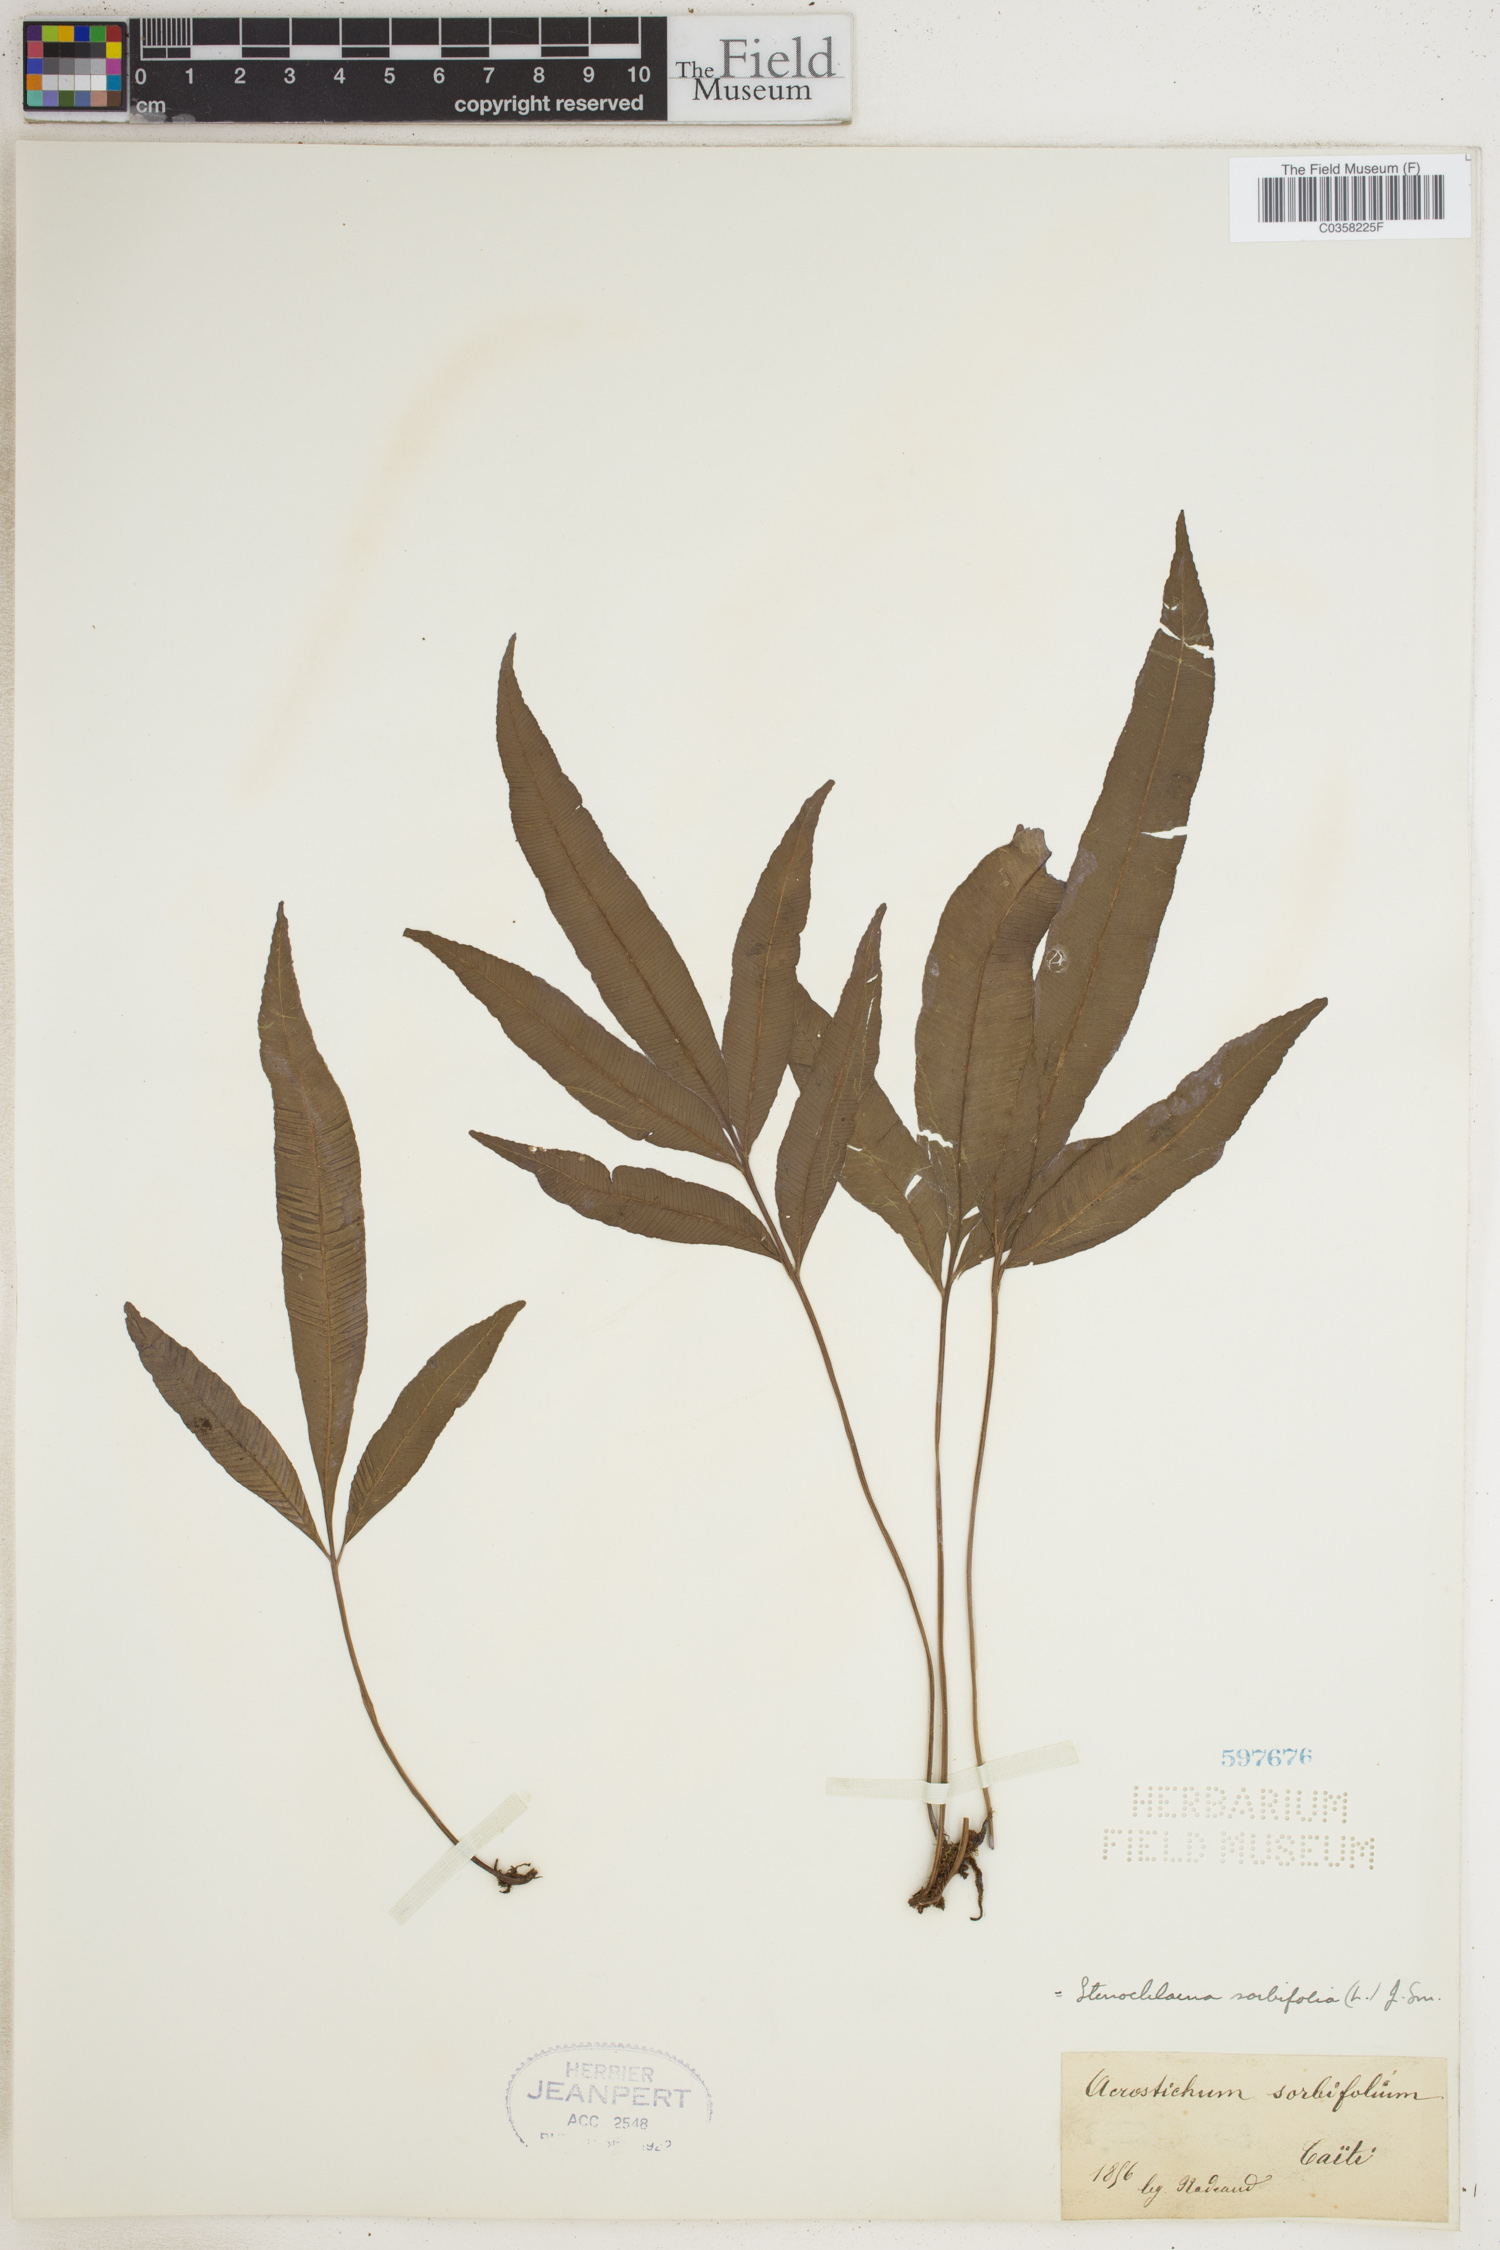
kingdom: Plantae
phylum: Tracheophyta
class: Polypodiopsida
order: Polypodiales
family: Blechnaceae
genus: Stenochlaena
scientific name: Stenochlaena tenuifolia
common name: Giant vine fern
